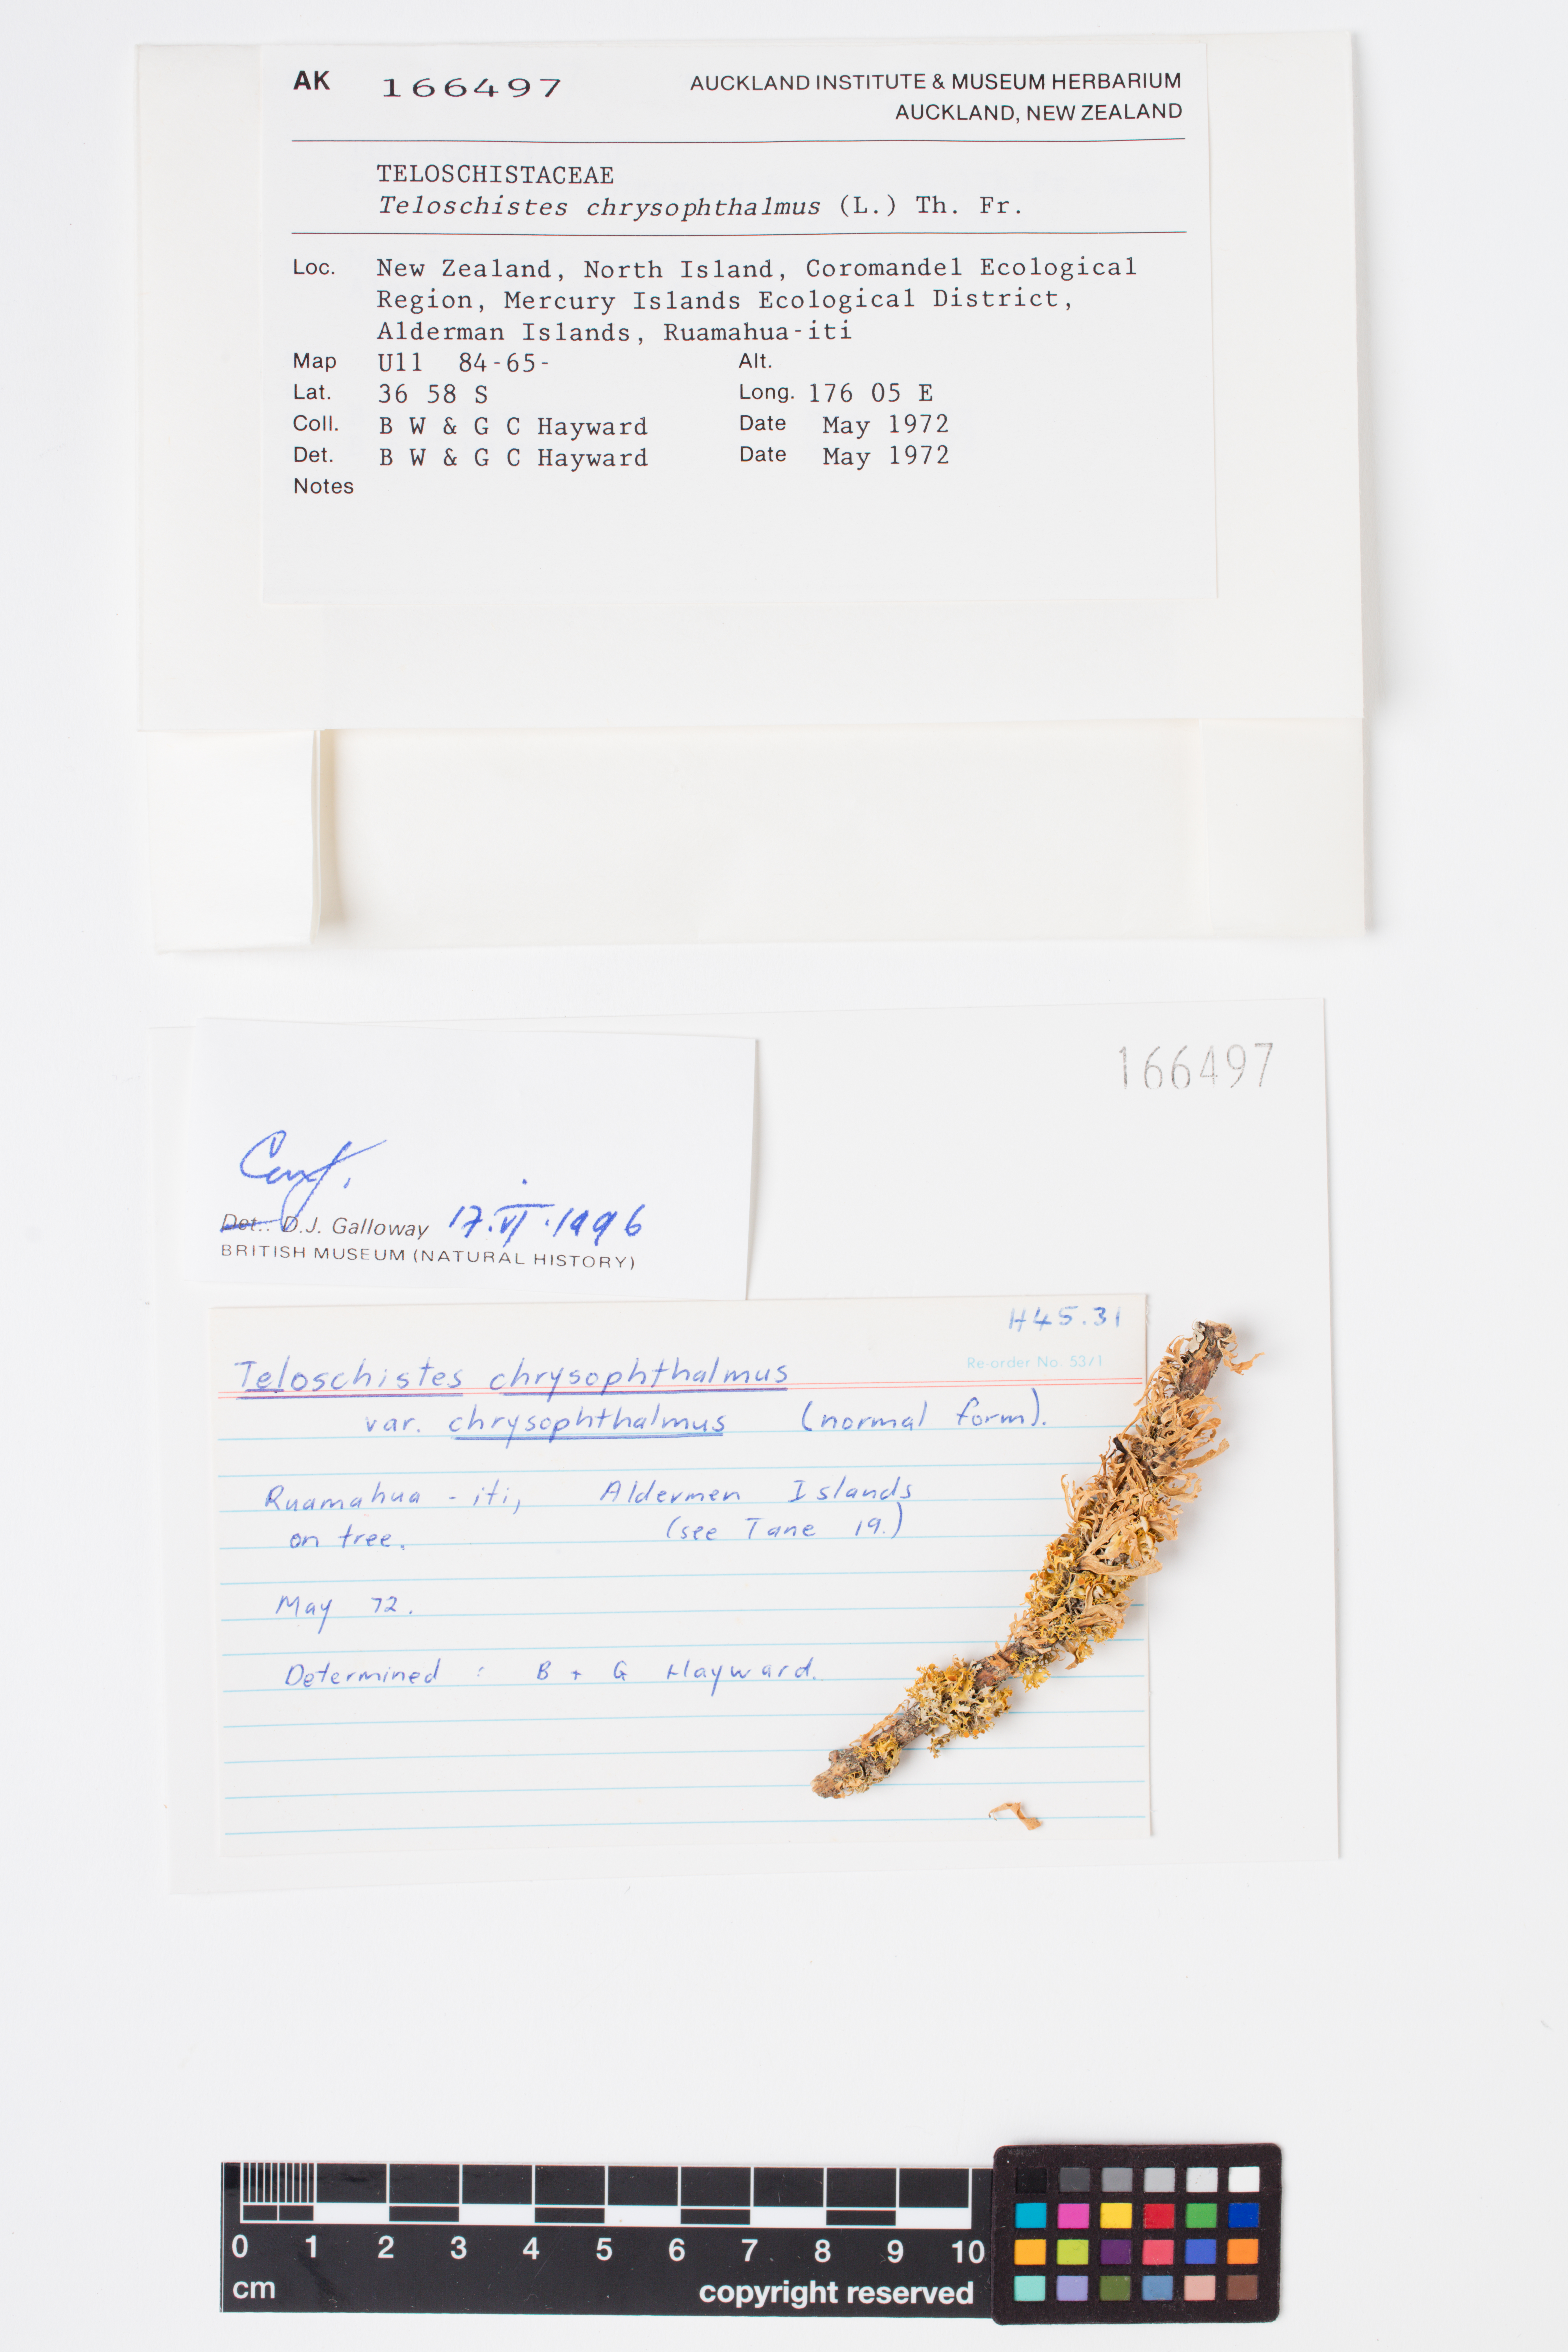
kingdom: Fungi
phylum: Ascomycota
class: Lecanoromycetes
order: Teloschistales
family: Teloschistaceae
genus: Niorma
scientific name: Niorma chrysophthalma
